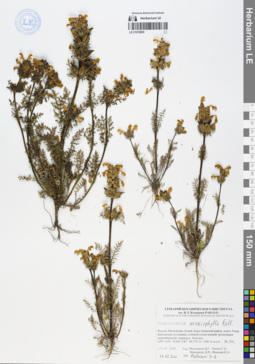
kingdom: Plantae
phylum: Tracheophyta
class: Magnoliopsida
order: Lamiales
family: Orobanchaceae
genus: Pedicularis
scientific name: Pedicularis myriophylla
